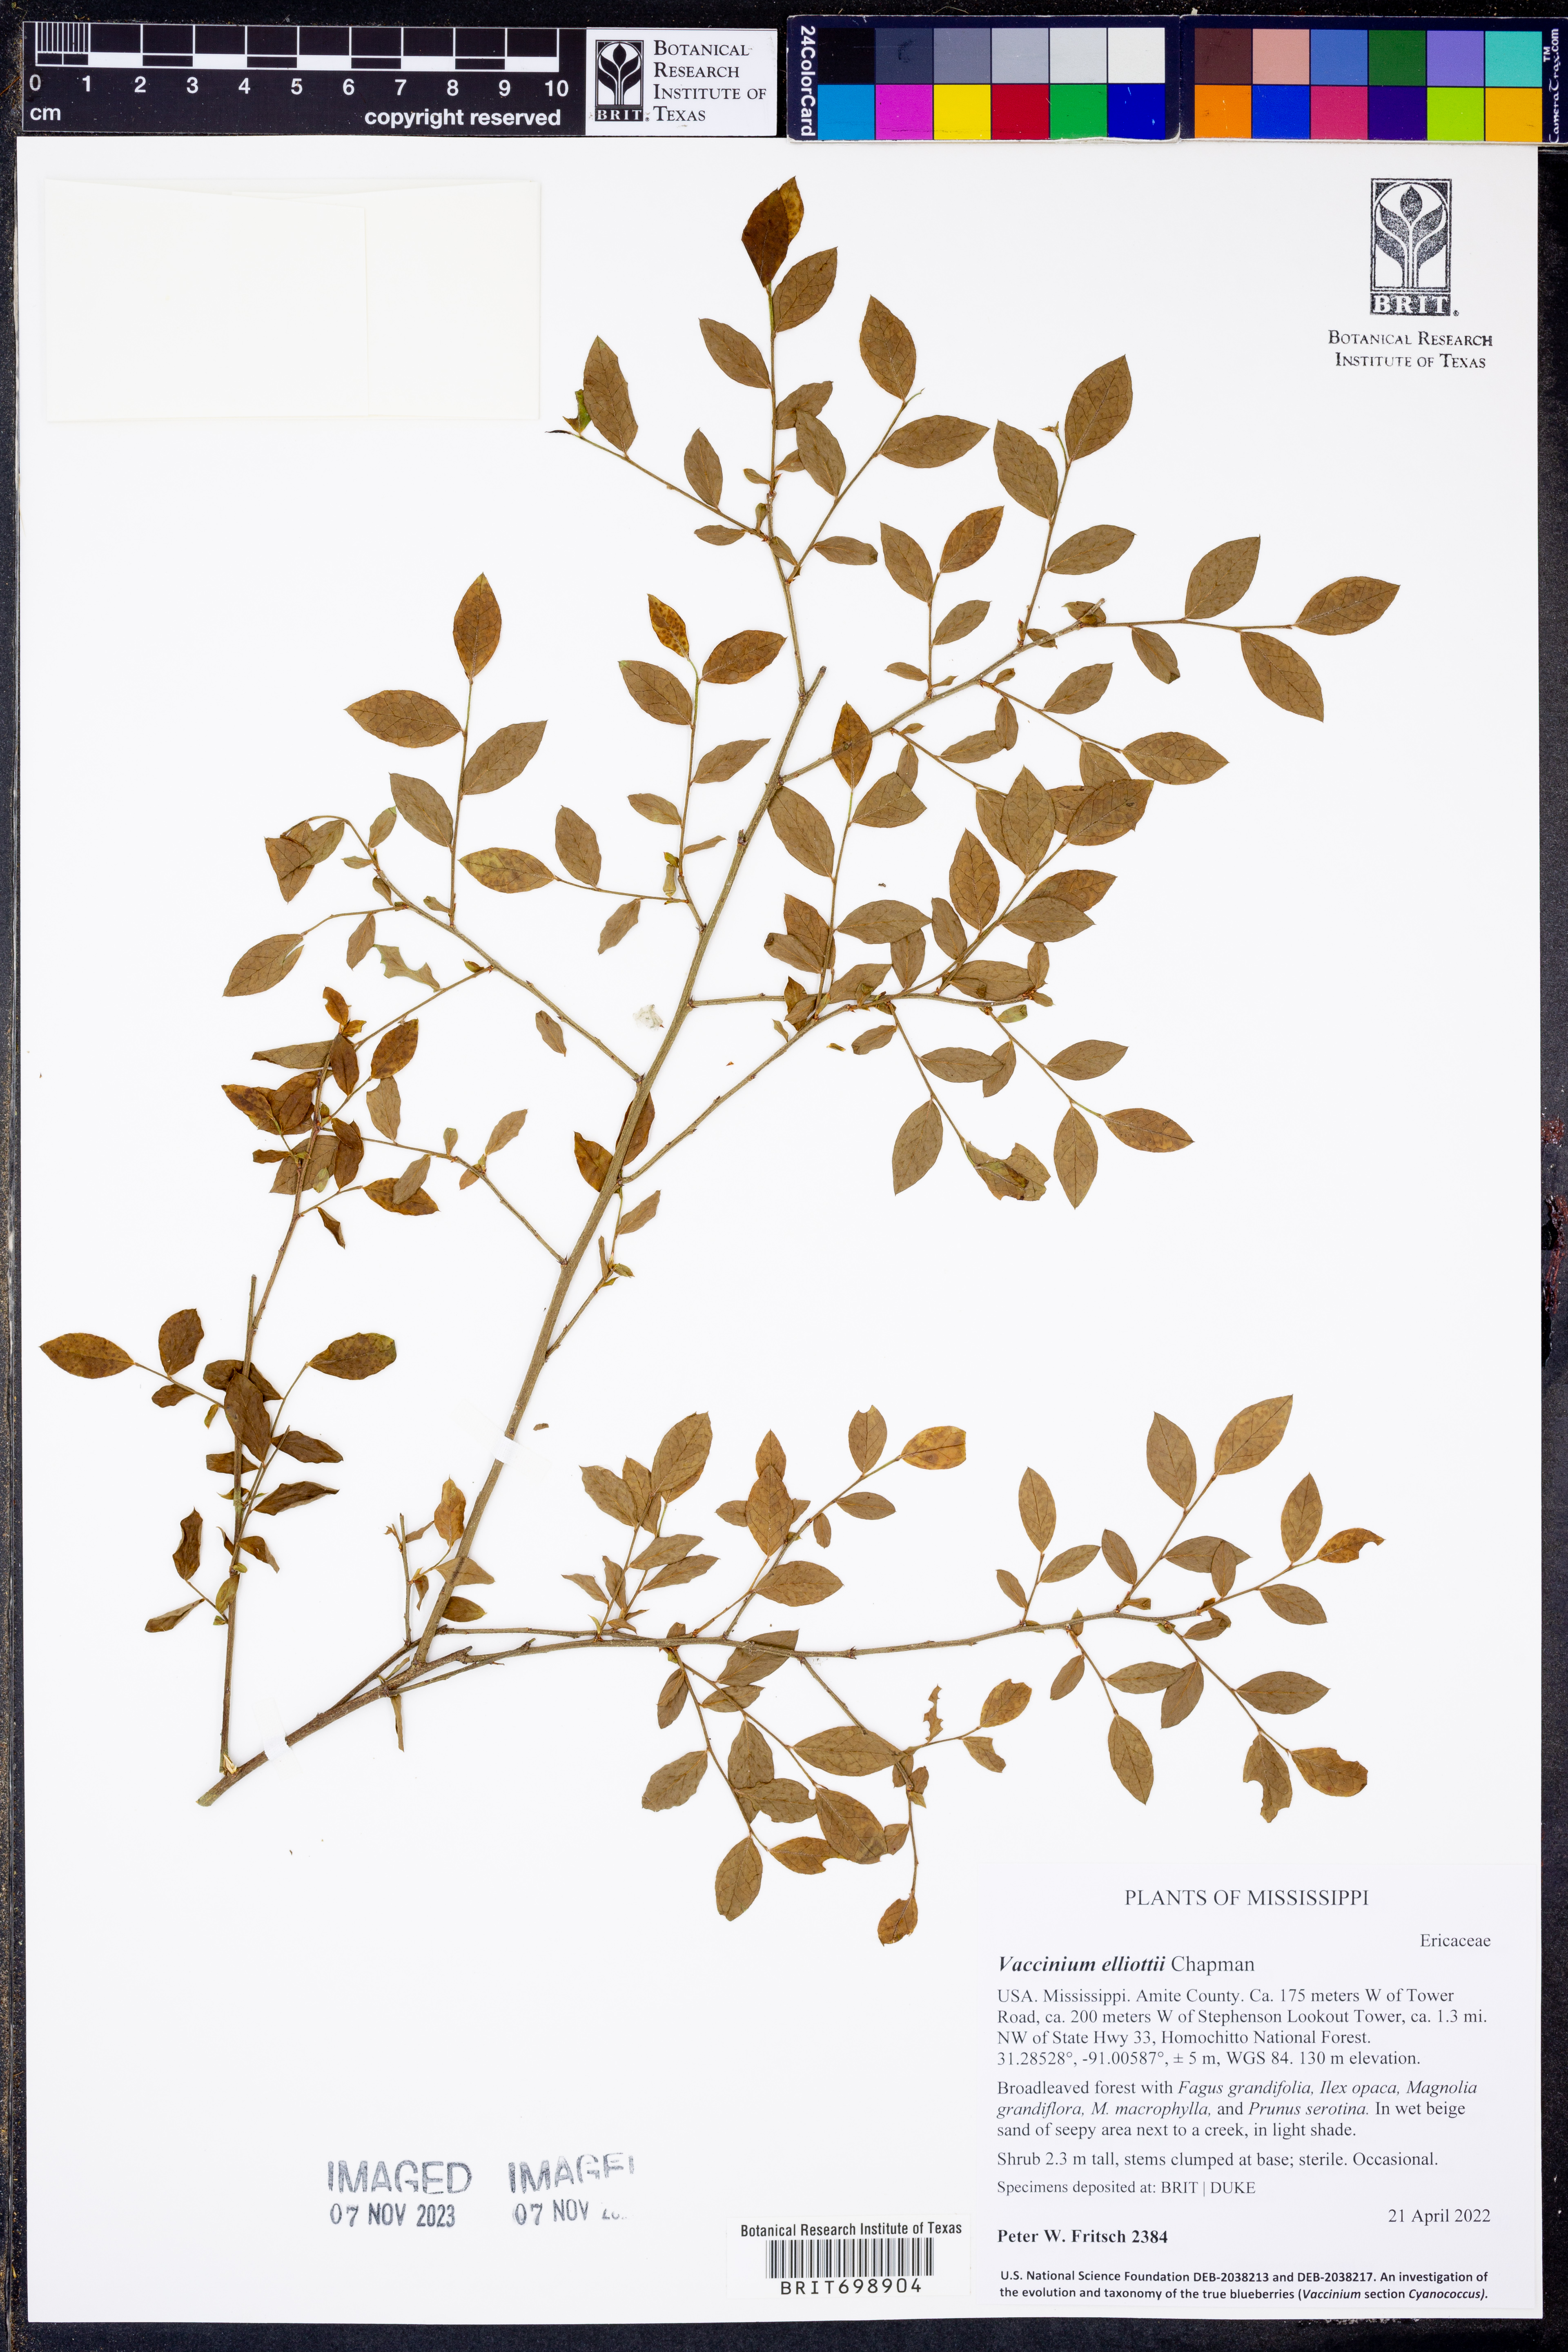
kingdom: Plantae
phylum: Tracheophyta
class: Magnoliopsida
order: Ericales
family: Ericaceae
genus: Vaccinium
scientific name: Vaccinium corymbosum
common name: Blueberry
